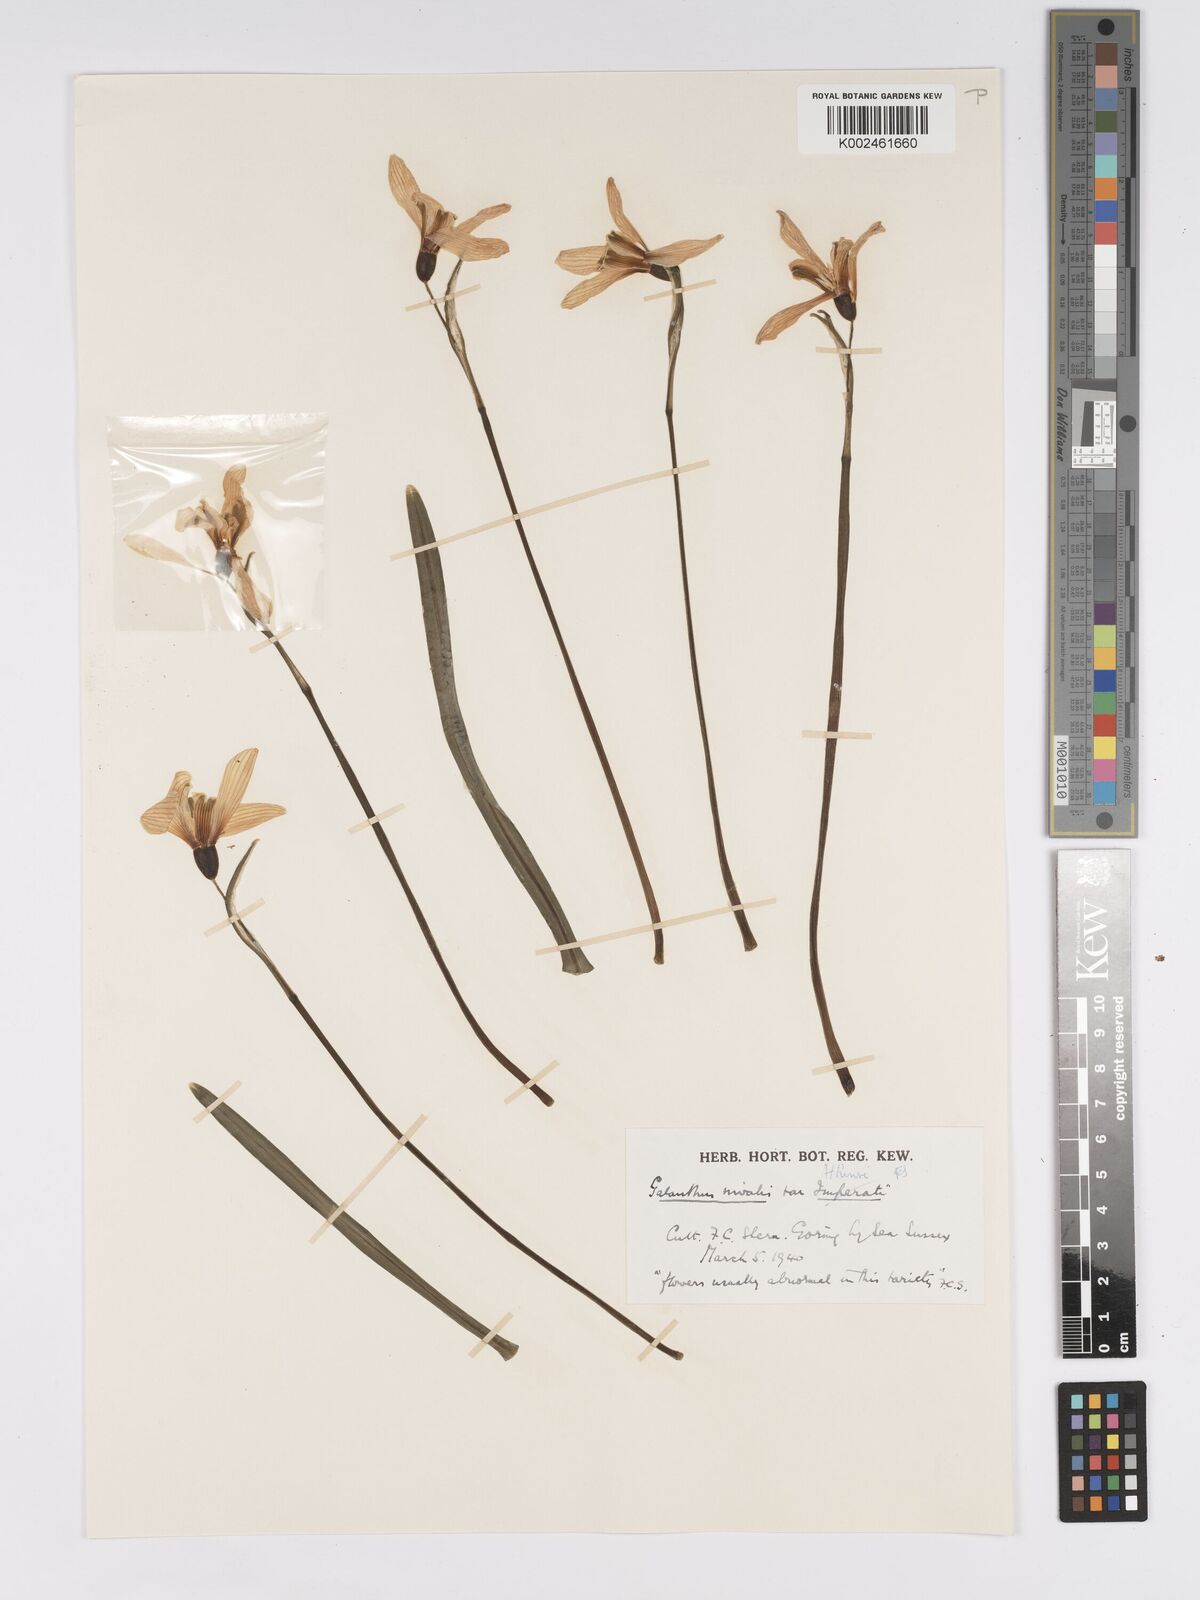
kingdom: Plantae
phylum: Tracheophyta
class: Liliopsida
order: Asparagales
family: Amaryllidaceae
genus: Galanthus
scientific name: Galanthus
